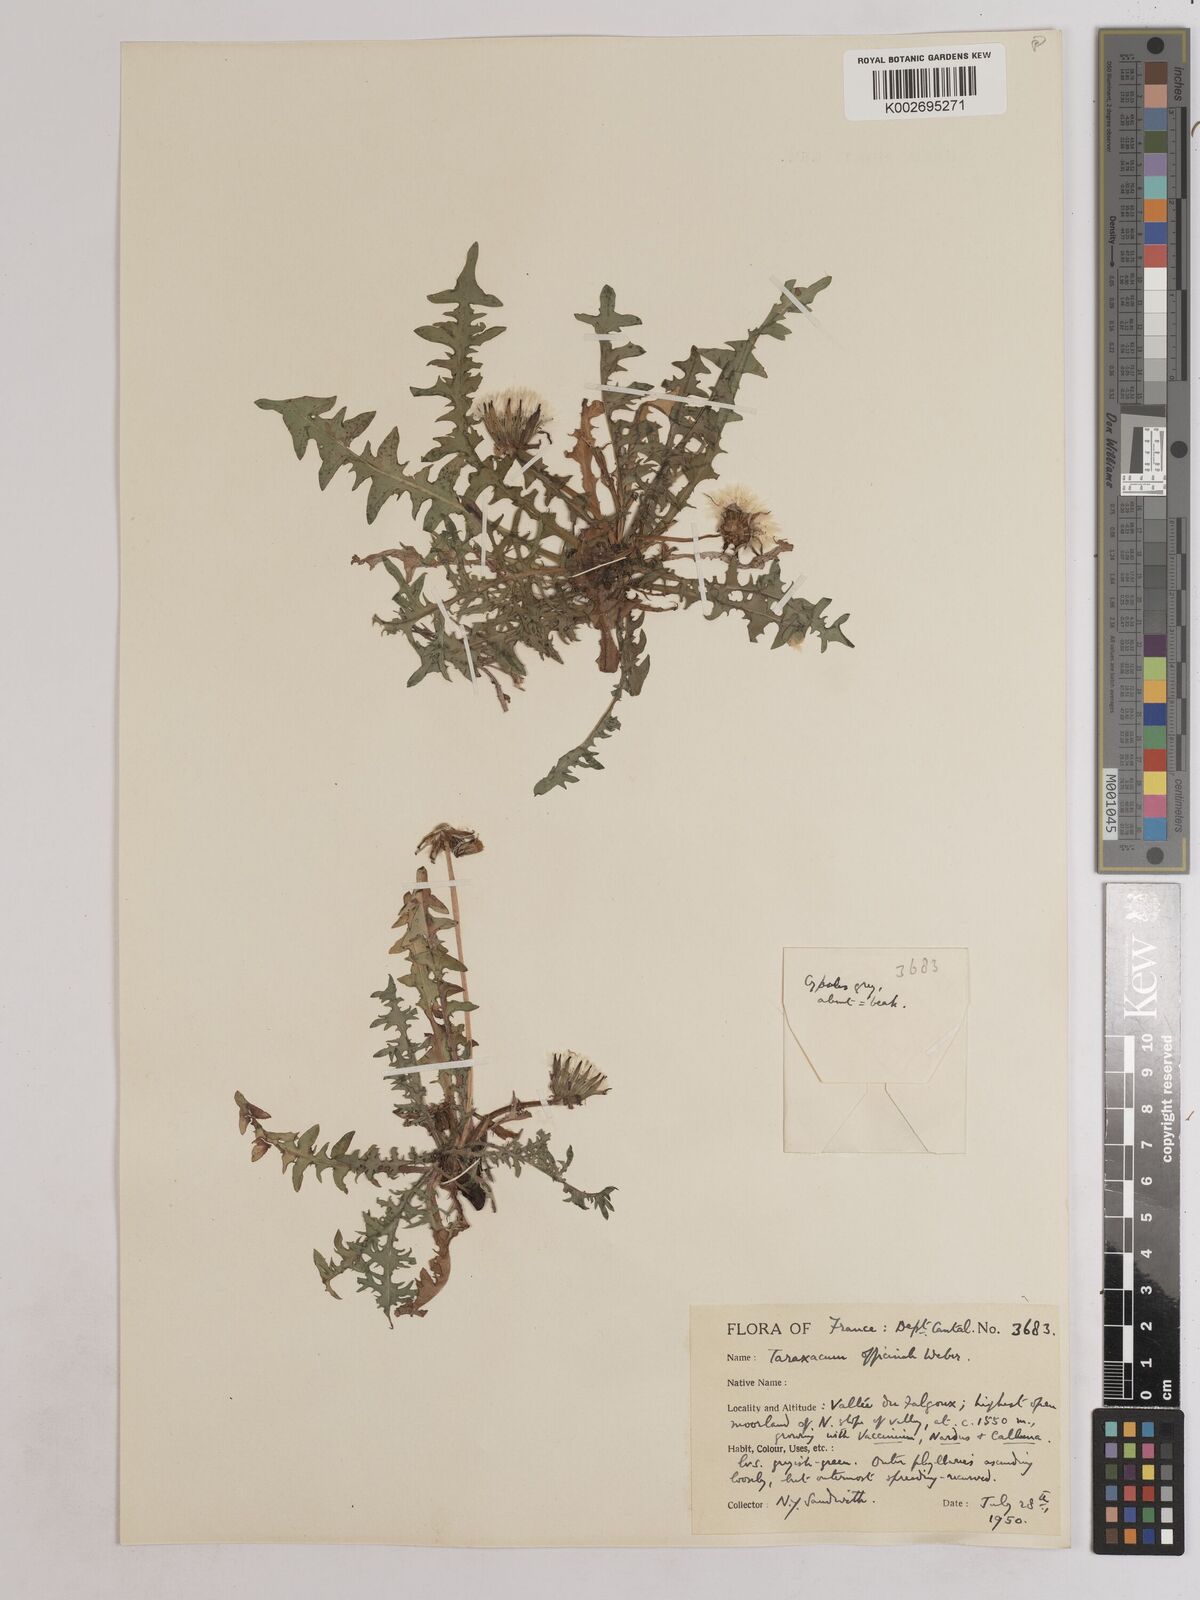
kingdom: Plantae
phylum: Tracheophyta
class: Magnoliopsida
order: Asterales
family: Asteraceae
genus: Taraxacum
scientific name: Taraxacum officinale
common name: Common dandelion
